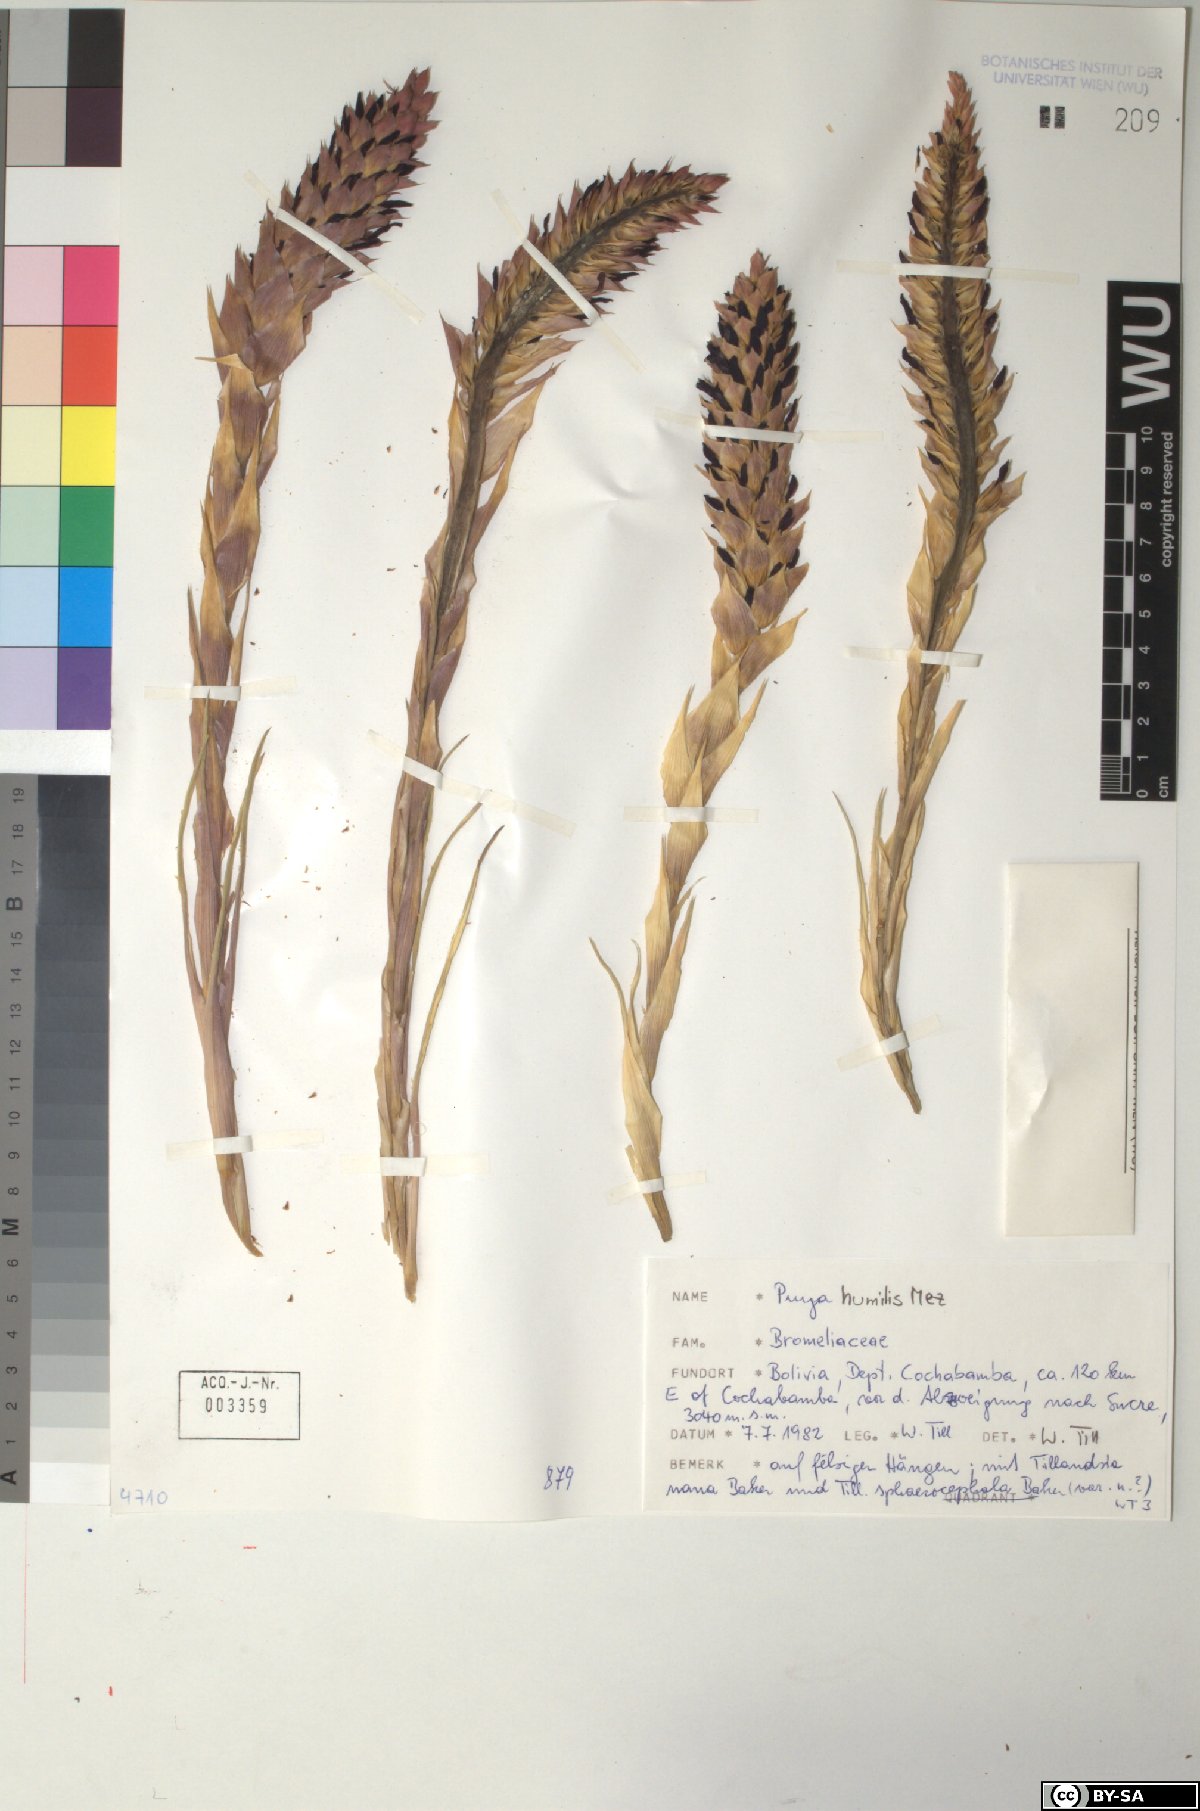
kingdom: Plantae
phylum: Tracheophyta
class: Liliopsida
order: Poales
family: Bromeliaceae
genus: Puya
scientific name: Puya humilis
